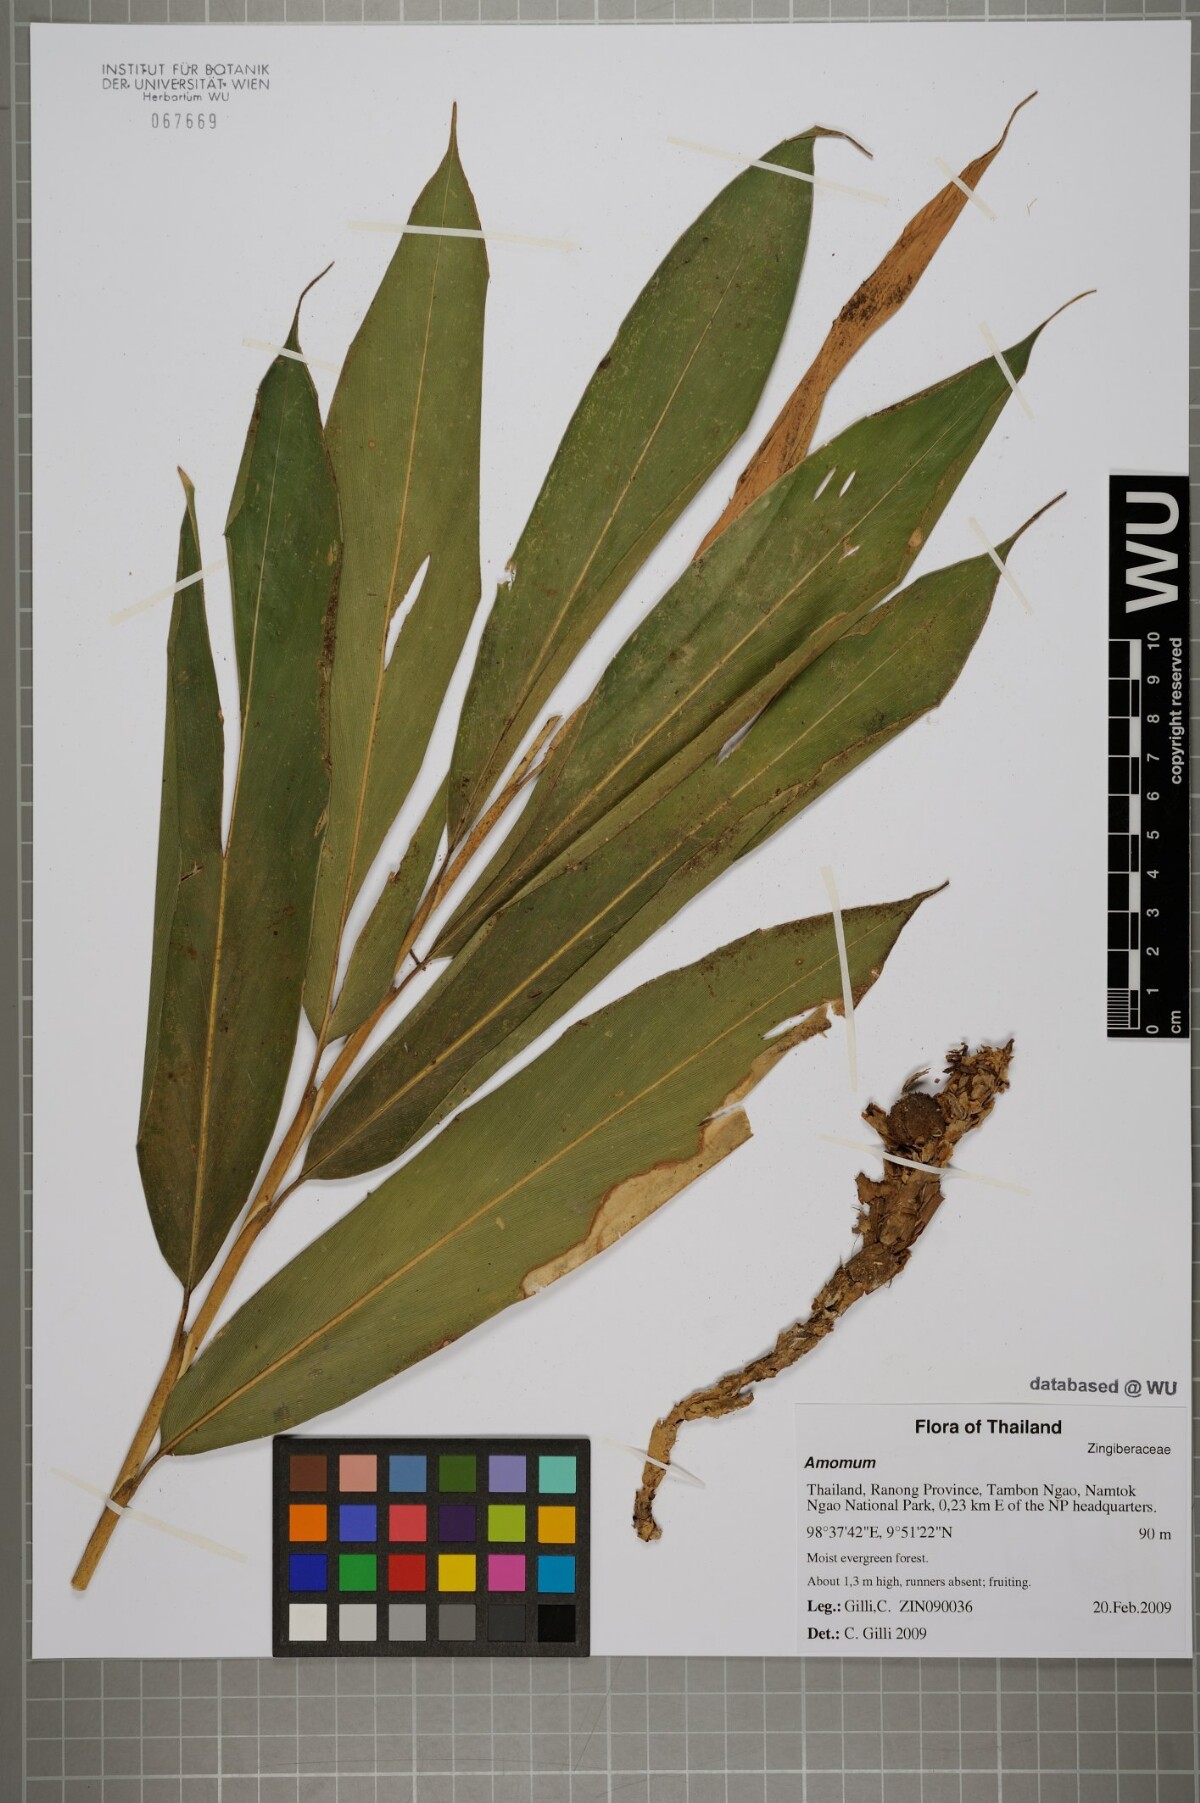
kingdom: Plantae
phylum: Tracheophyta
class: Liliopsida
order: Zingiberales
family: Zingiberaceae
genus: Amomum
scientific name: Amomum
